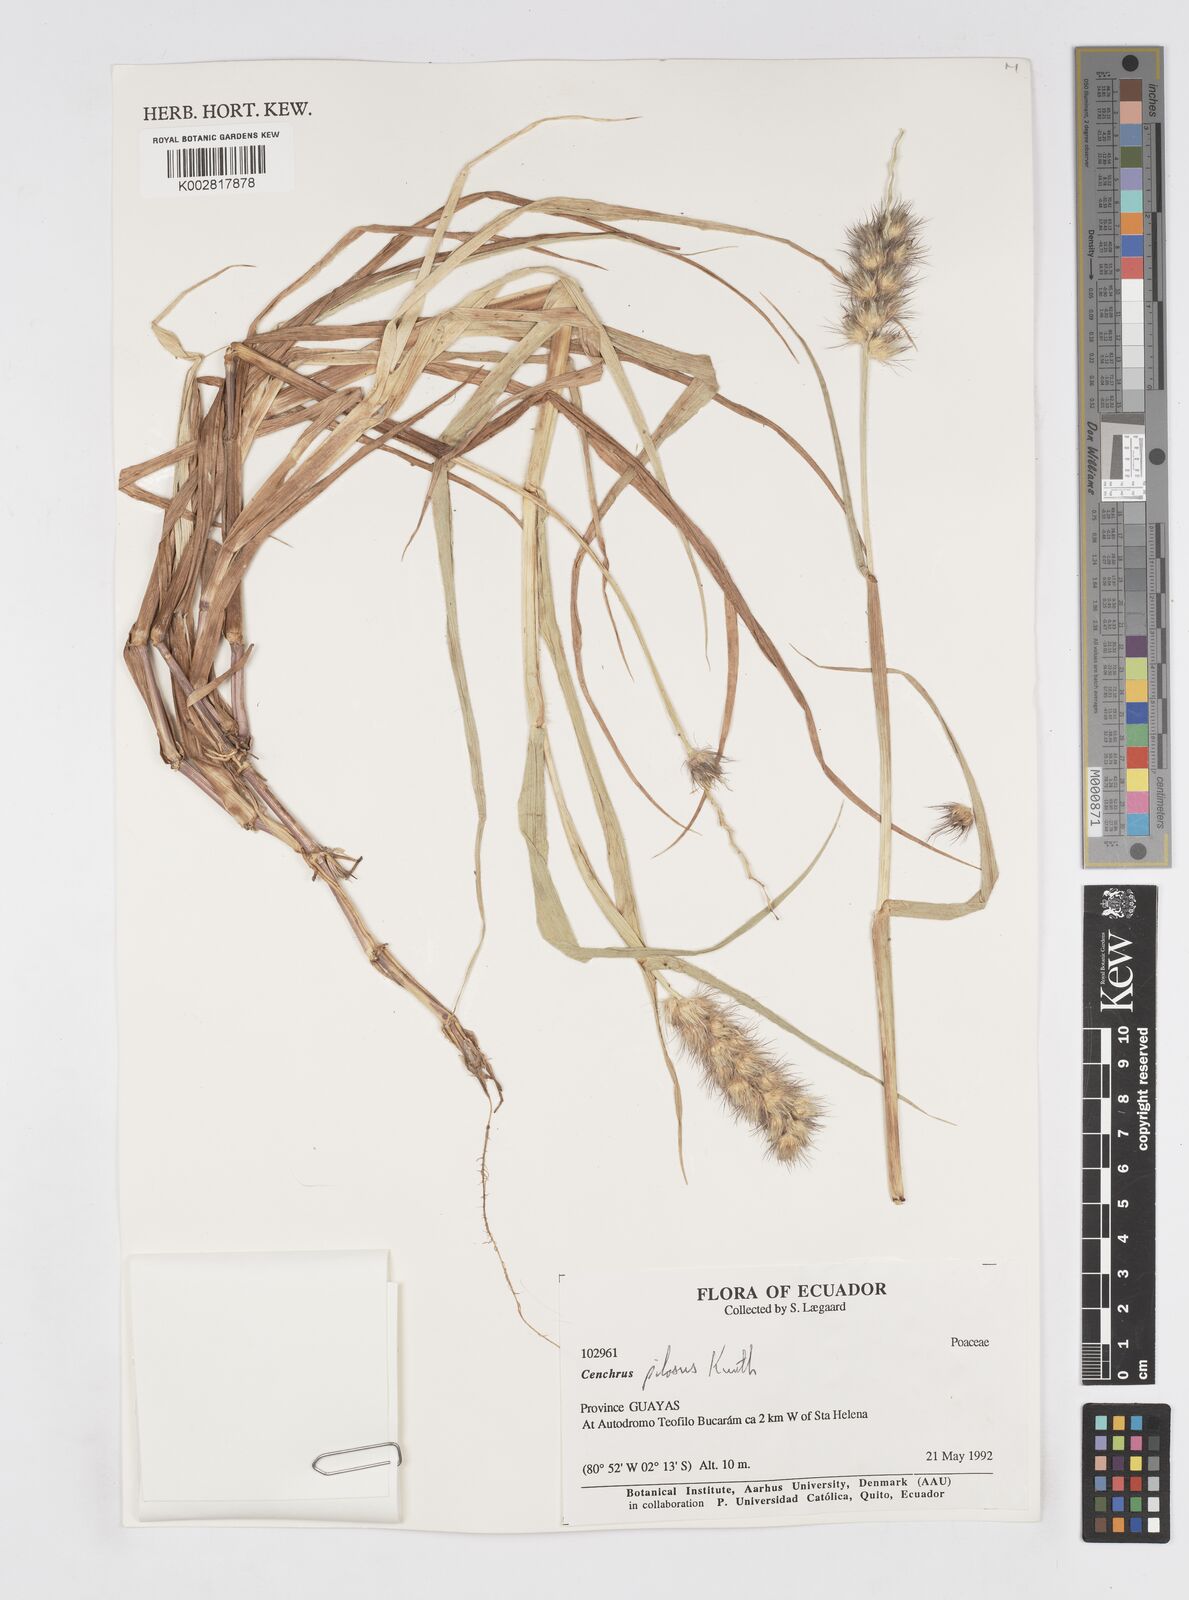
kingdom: Plantae
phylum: Tracheophyta
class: Liliopsida
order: Poales
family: Poaceae
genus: Cenchrus
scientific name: Cenchrus pilosus
